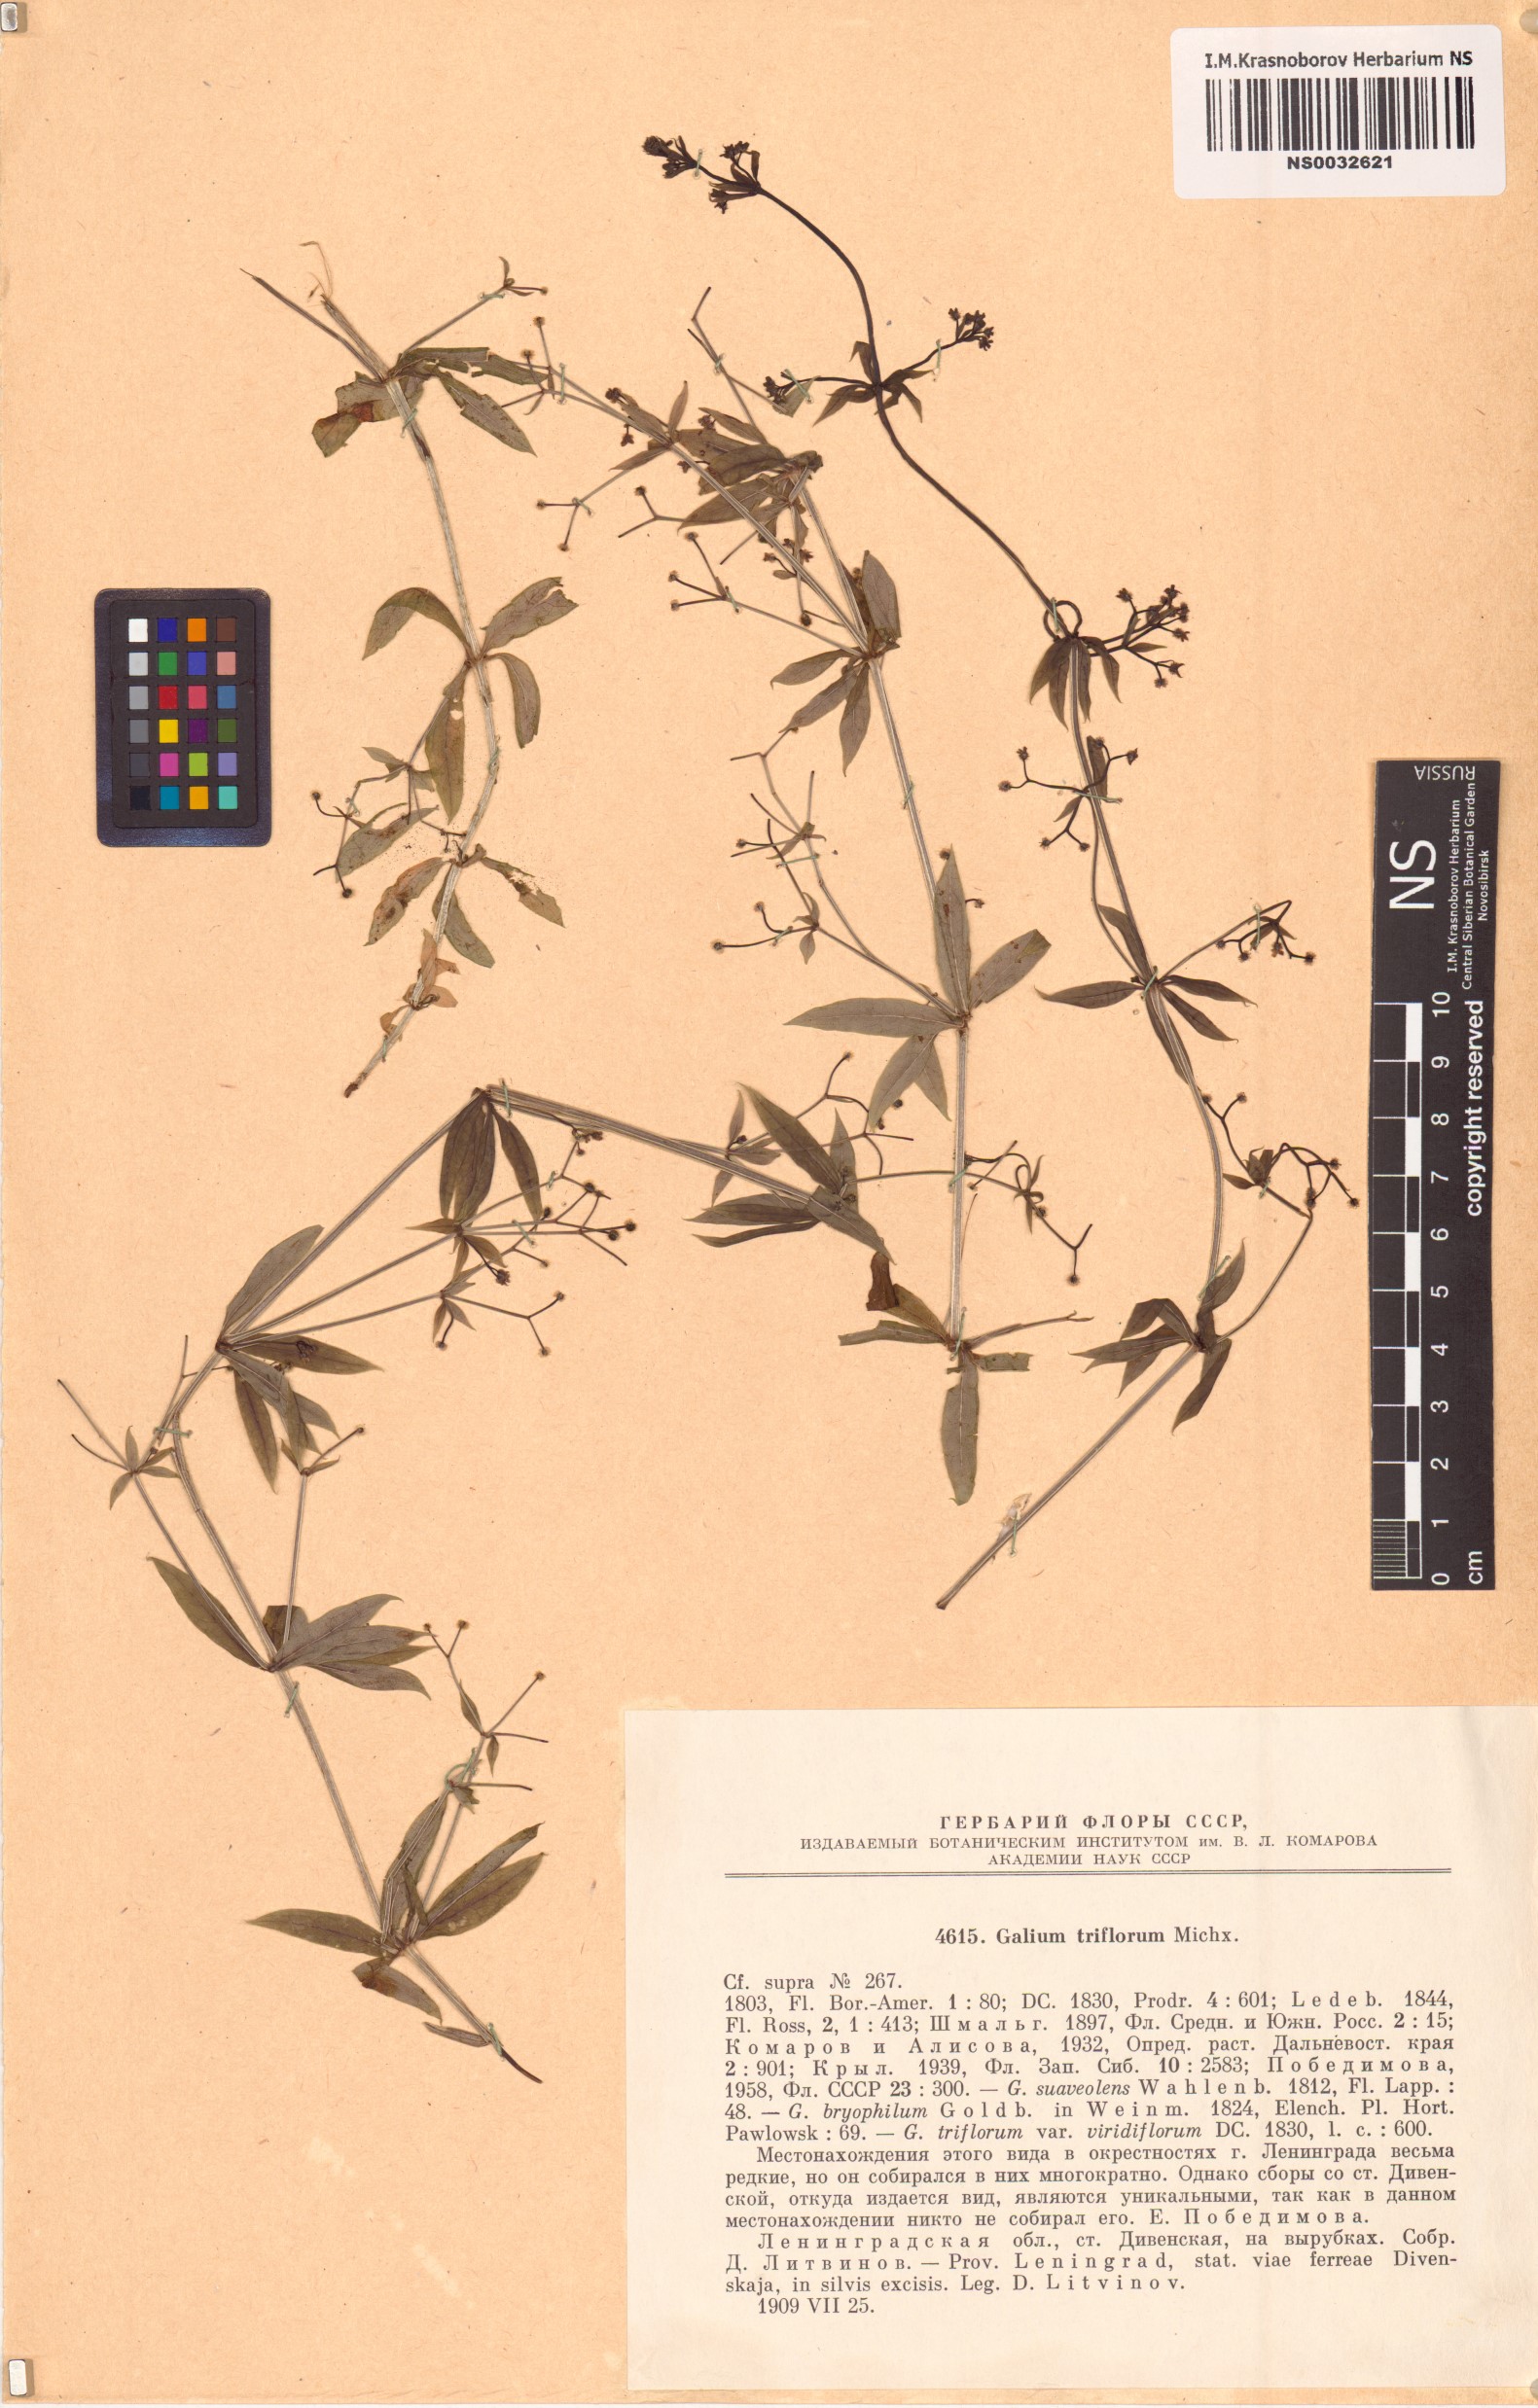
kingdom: Plantae
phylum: Tracheophyta
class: Magnoliopsida
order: Gentianales
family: Rubiaceae
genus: Galium
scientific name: Galium triflorum
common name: Fragrant bedstraw
